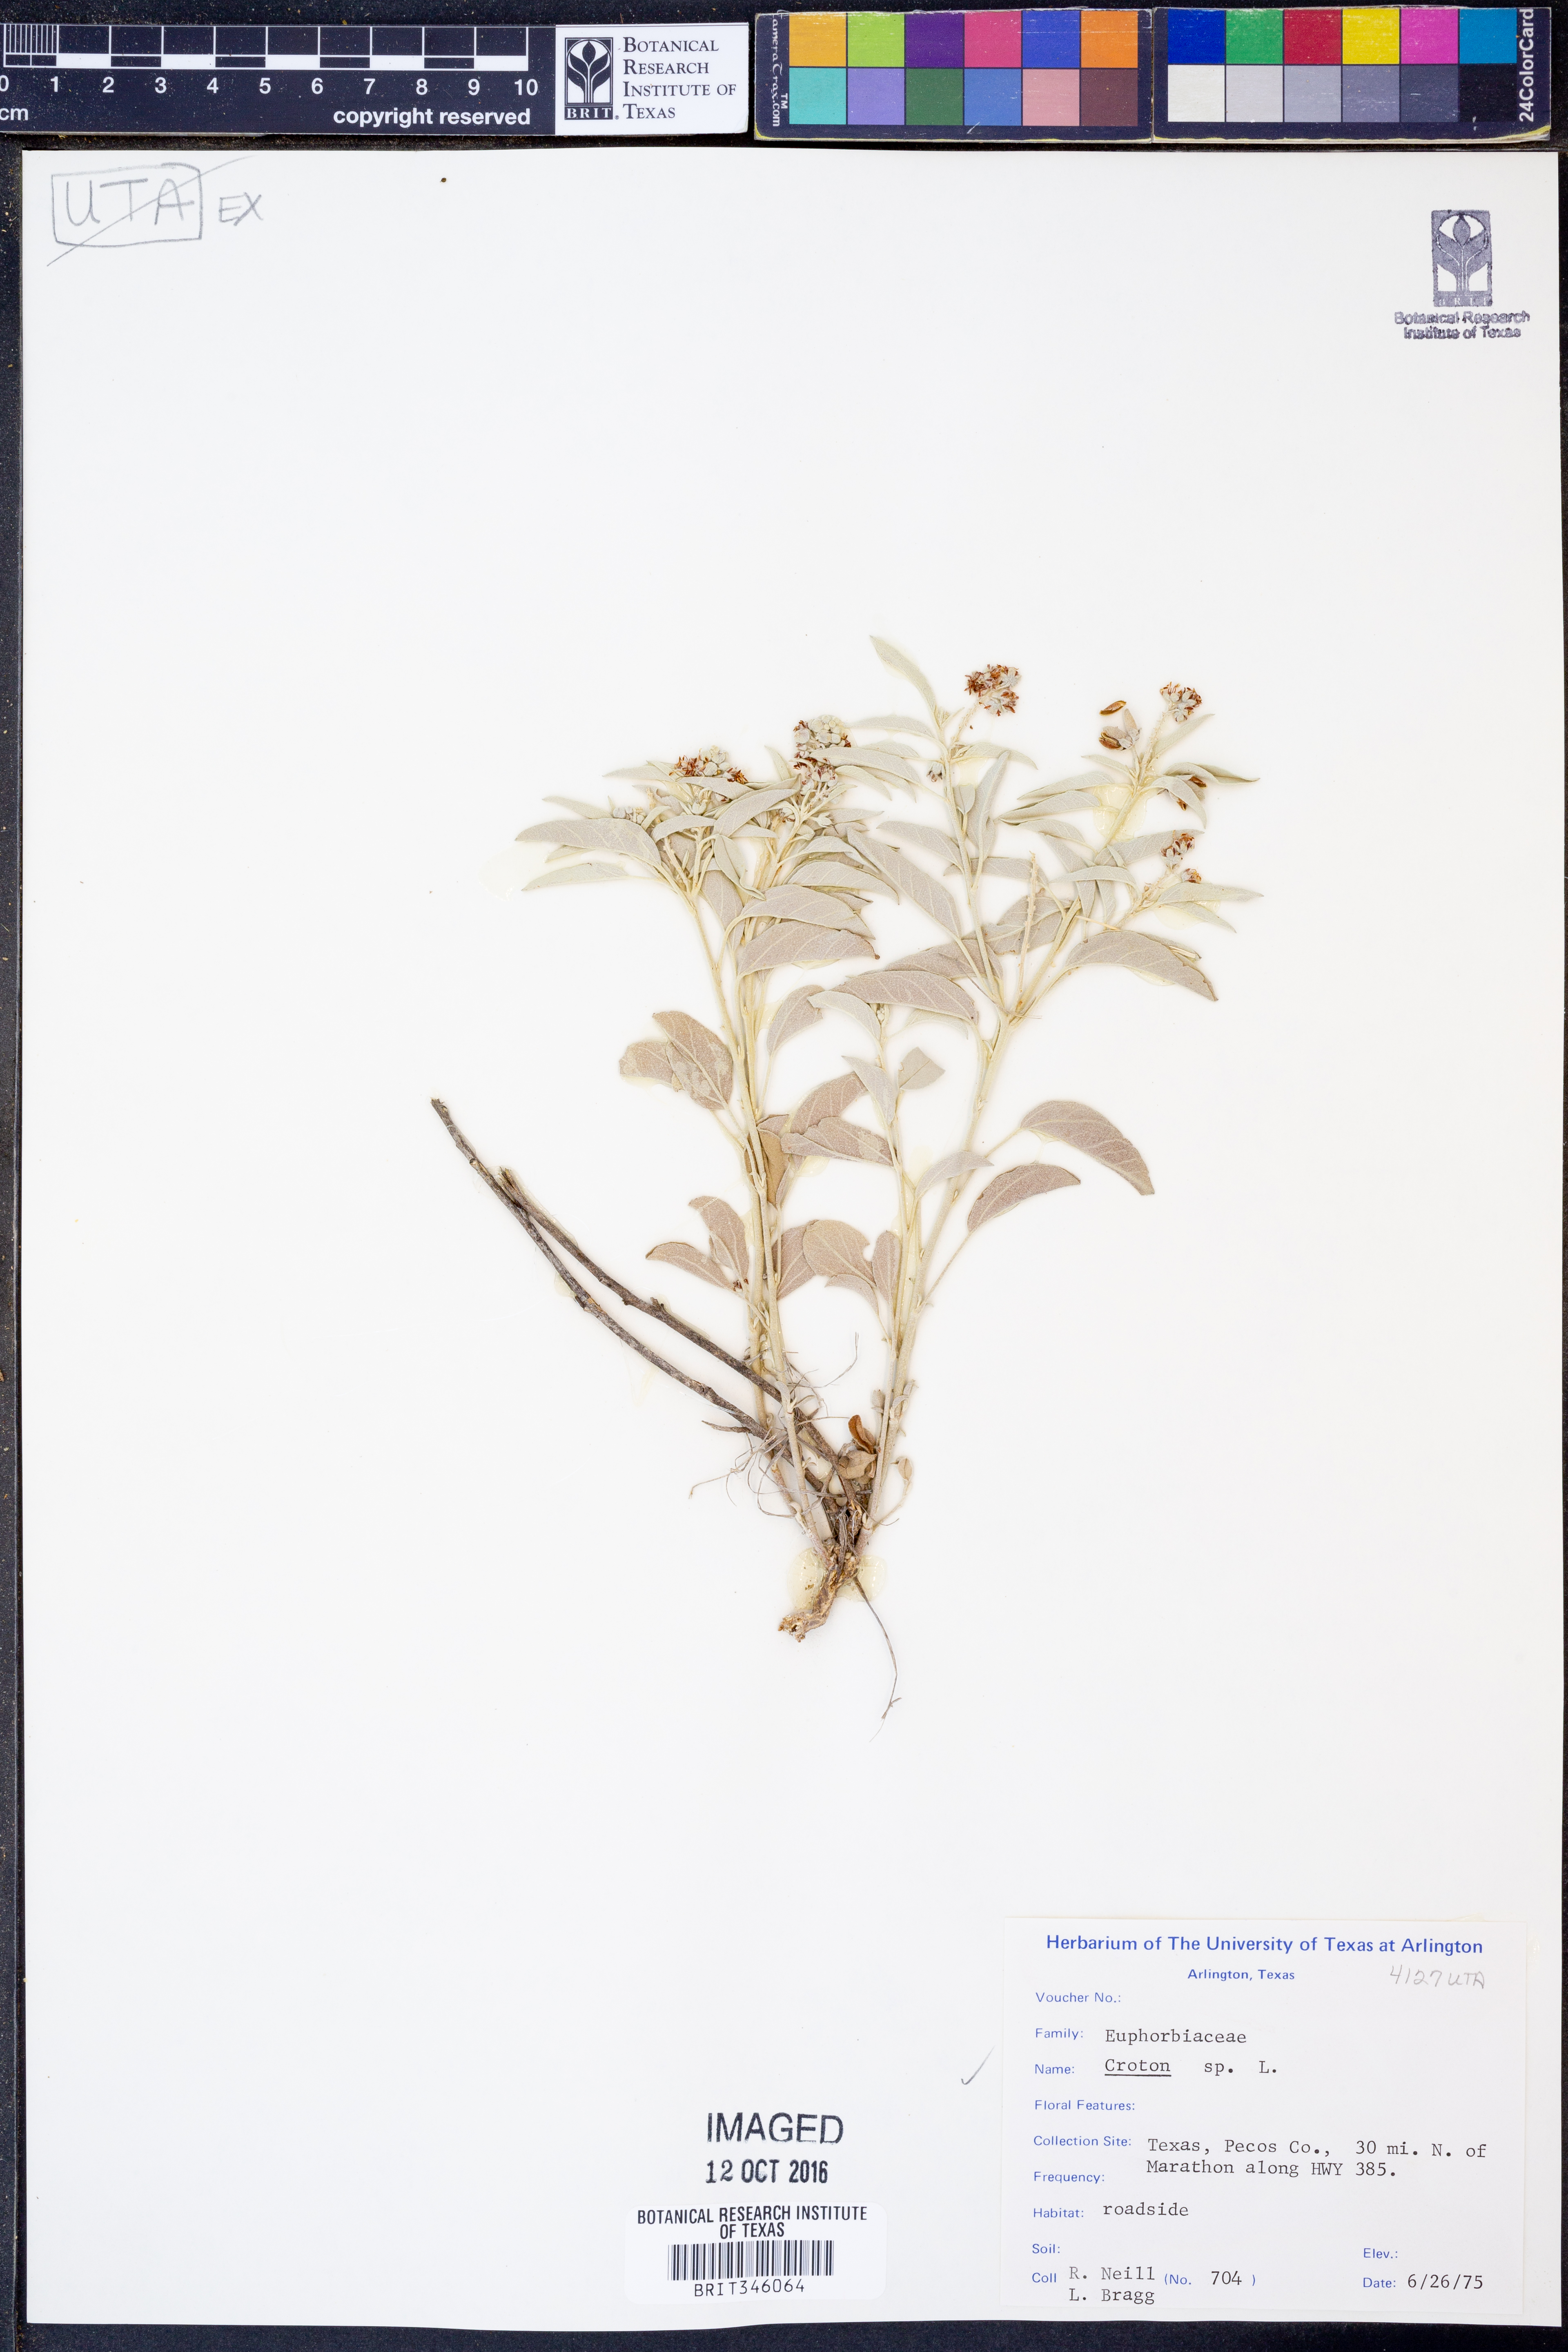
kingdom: Plantae
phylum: Tracheophyta
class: Magnoliopsida
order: Malpighiales
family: Euphorbiaceae
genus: Croton
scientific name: Croton
